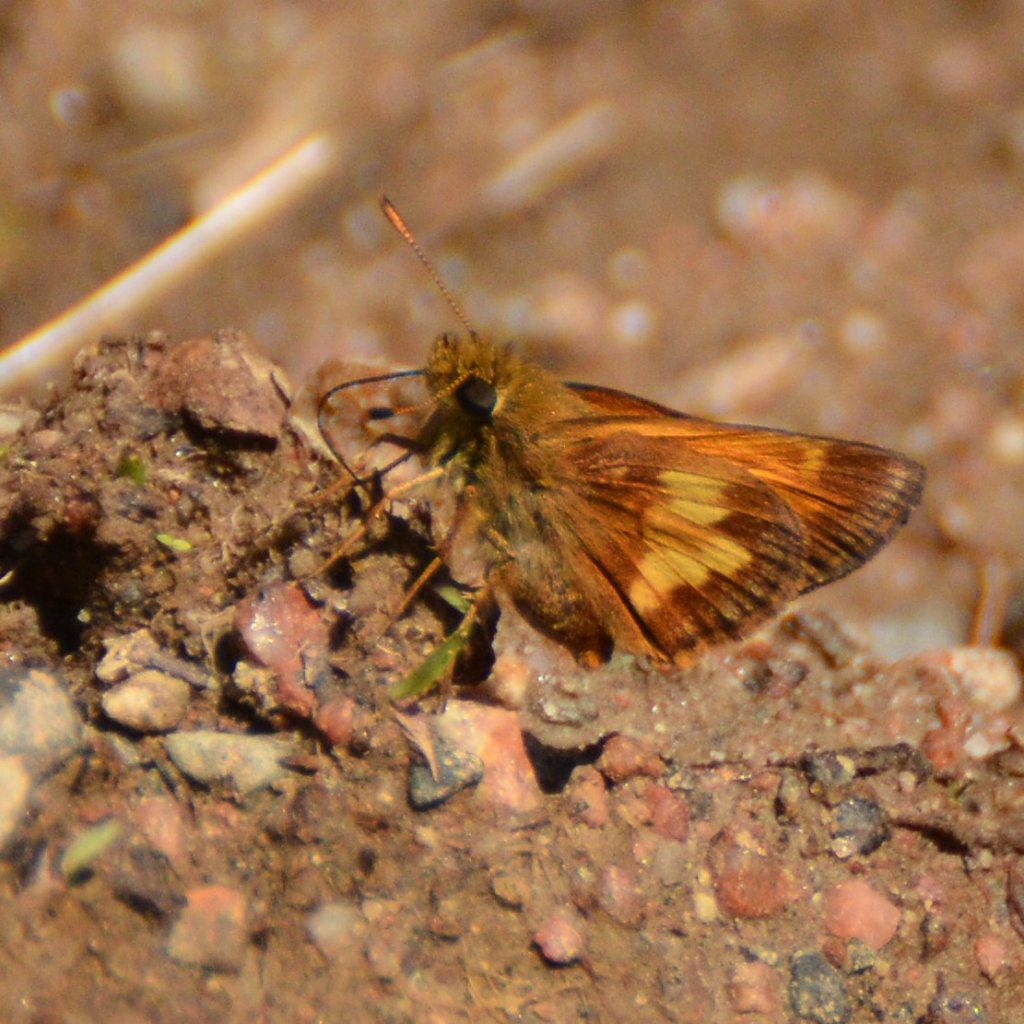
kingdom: Animalia
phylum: Arthropoda
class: Insecta
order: Lepidoptera
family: Hesperiidae
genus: Lon
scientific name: Lon hobomok
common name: Hobomok Skipper
